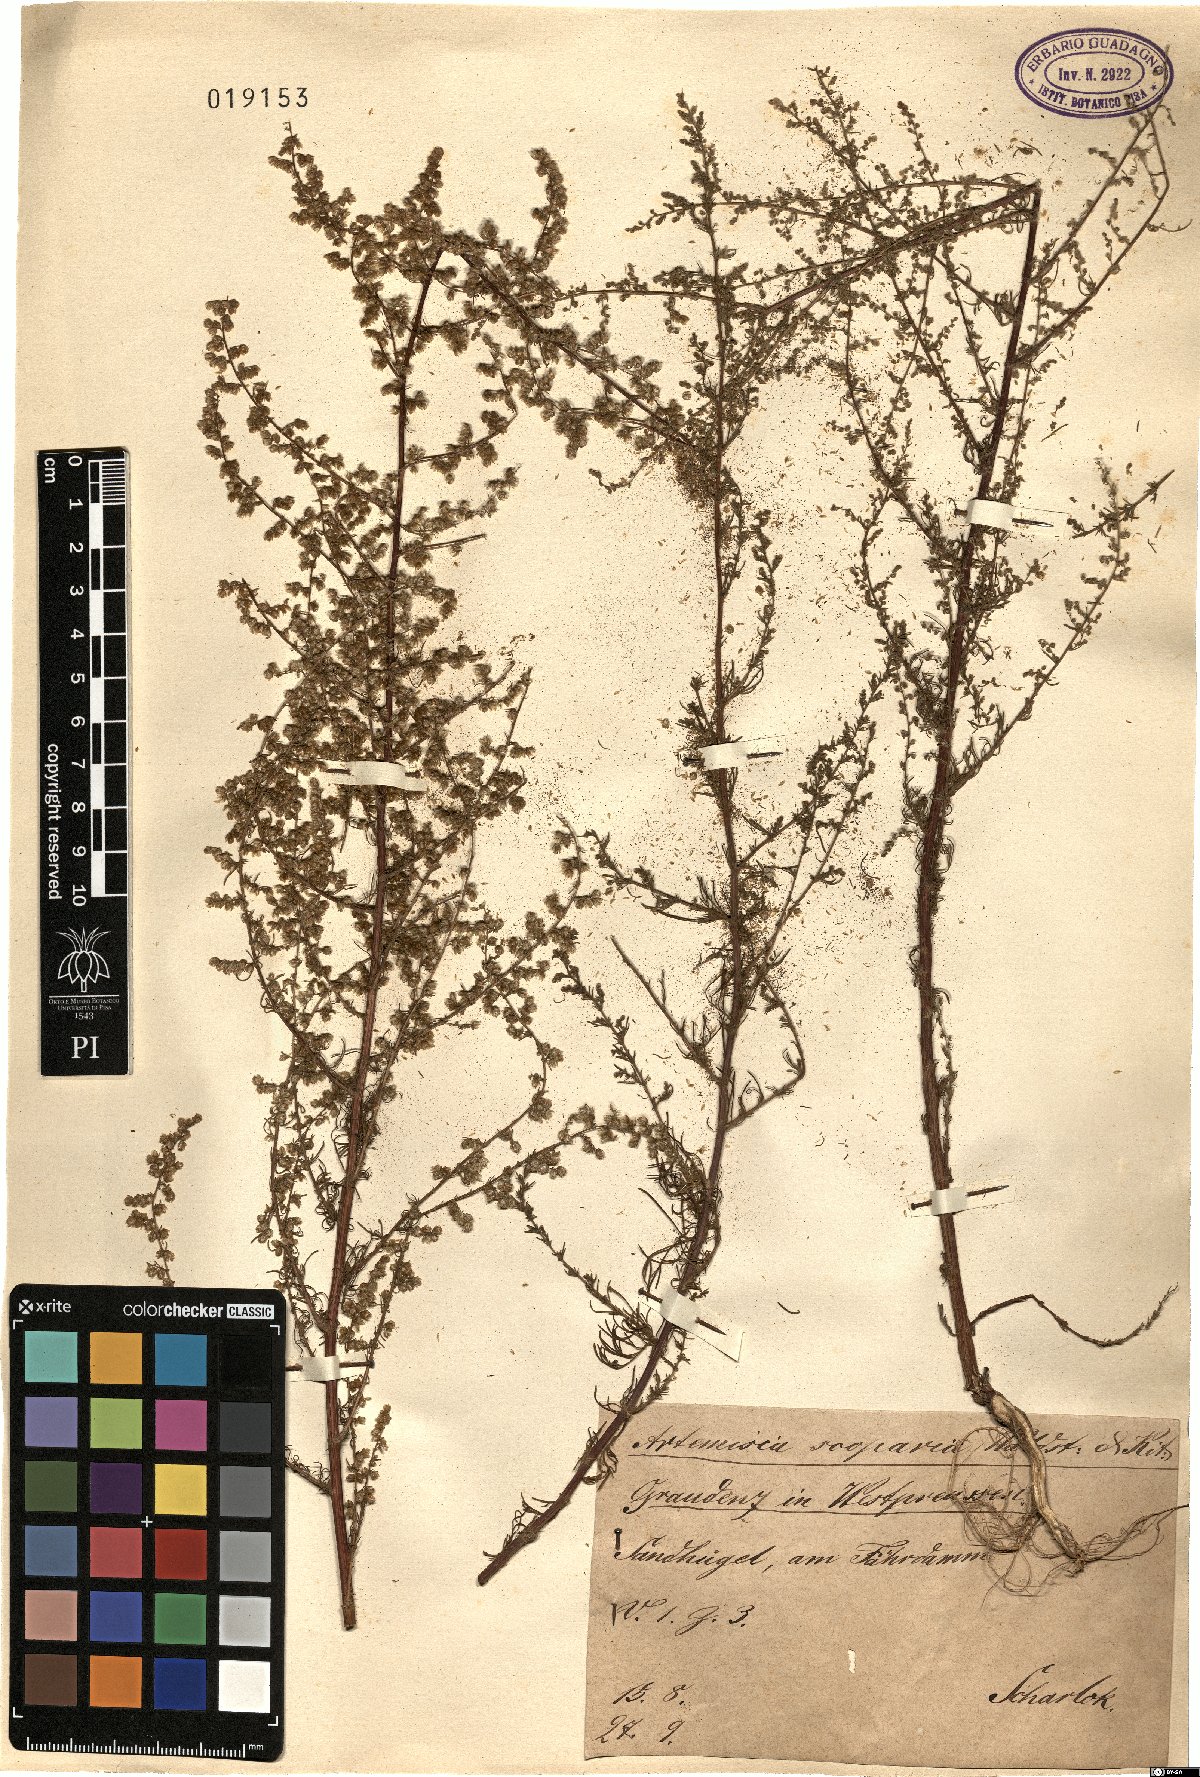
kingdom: Plantae
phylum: Tracheophyta
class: Magnoliopsida
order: Asterales
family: Asteraceae
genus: Artemisia
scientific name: Artemisia scoparia
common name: Redstem wormwood
